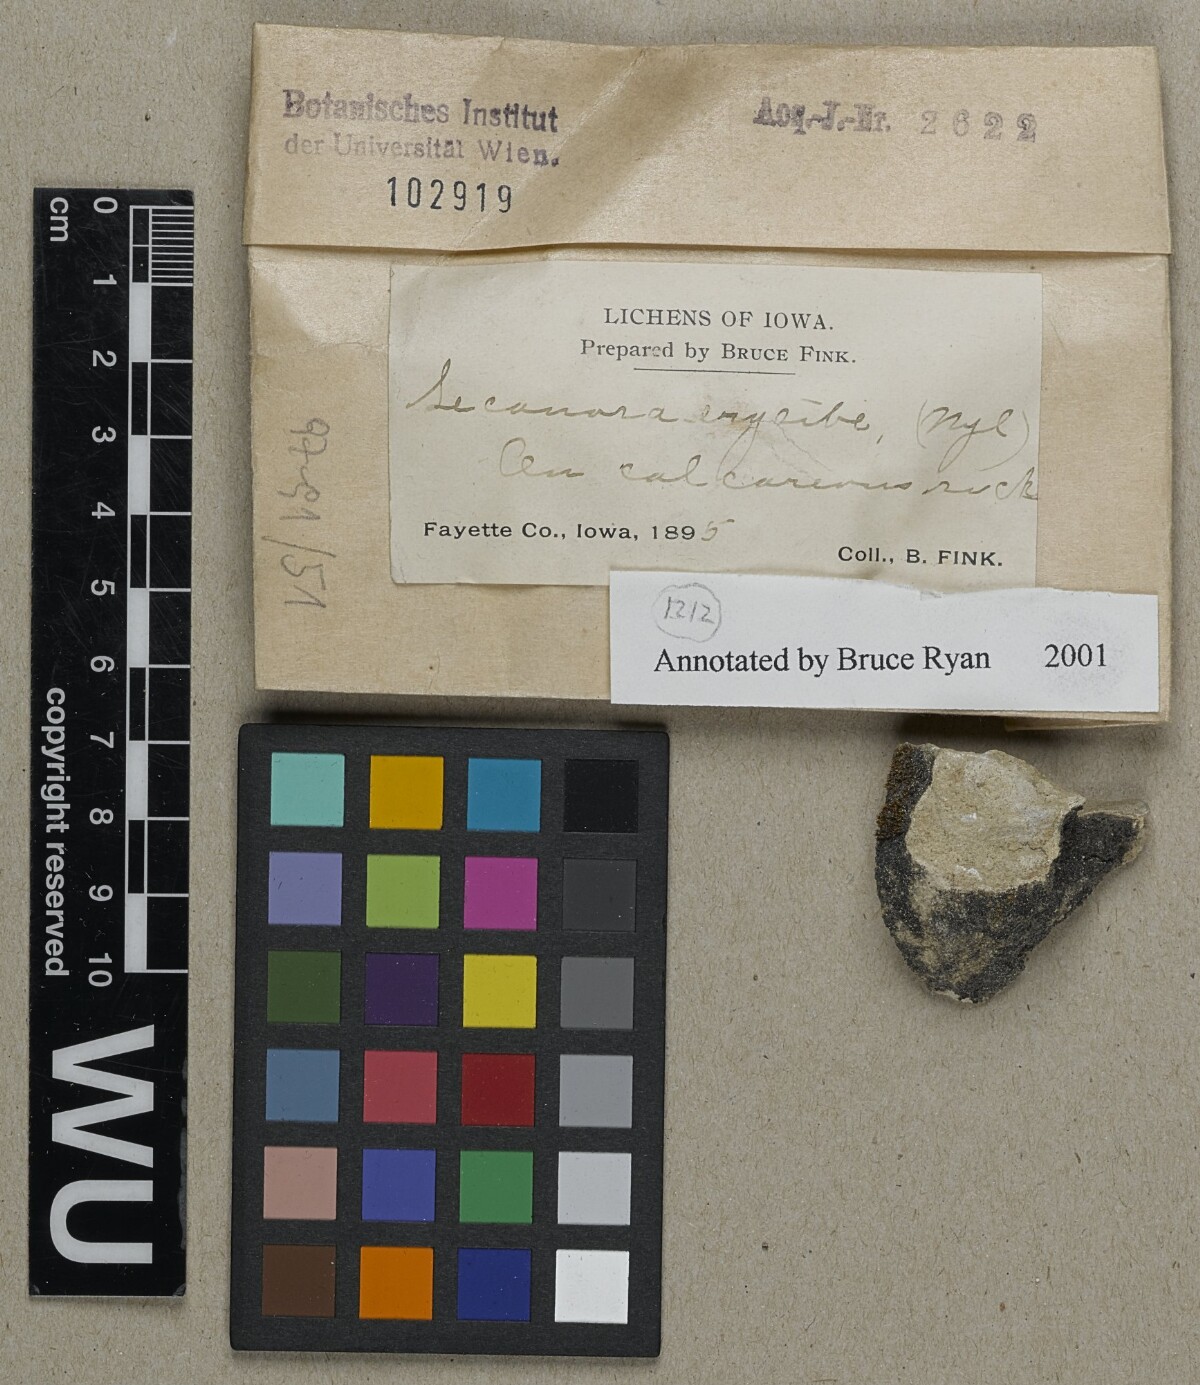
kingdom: Fungi
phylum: Ascomycota
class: Lecanoromycetes
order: Lecanorales
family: Ramalinaceae
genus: Lecania
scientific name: Lecania erysibe
